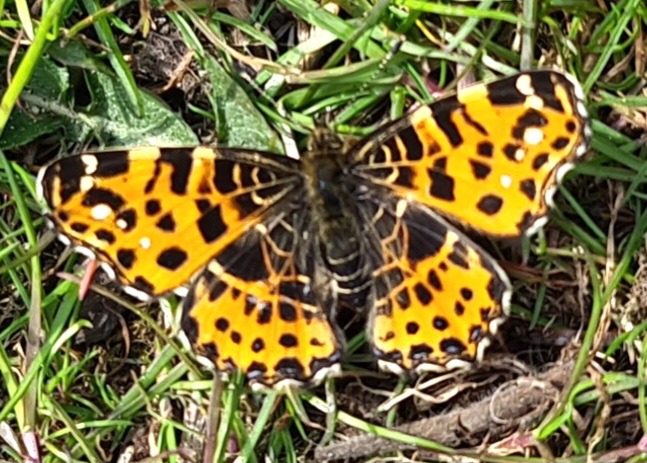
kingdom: Animalia
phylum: Arthropoda
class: Insecta
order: Lepidoptera
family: Nymphalidae
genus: Araschnia
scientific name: Araschnia levana
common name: Nældesommerfugl
